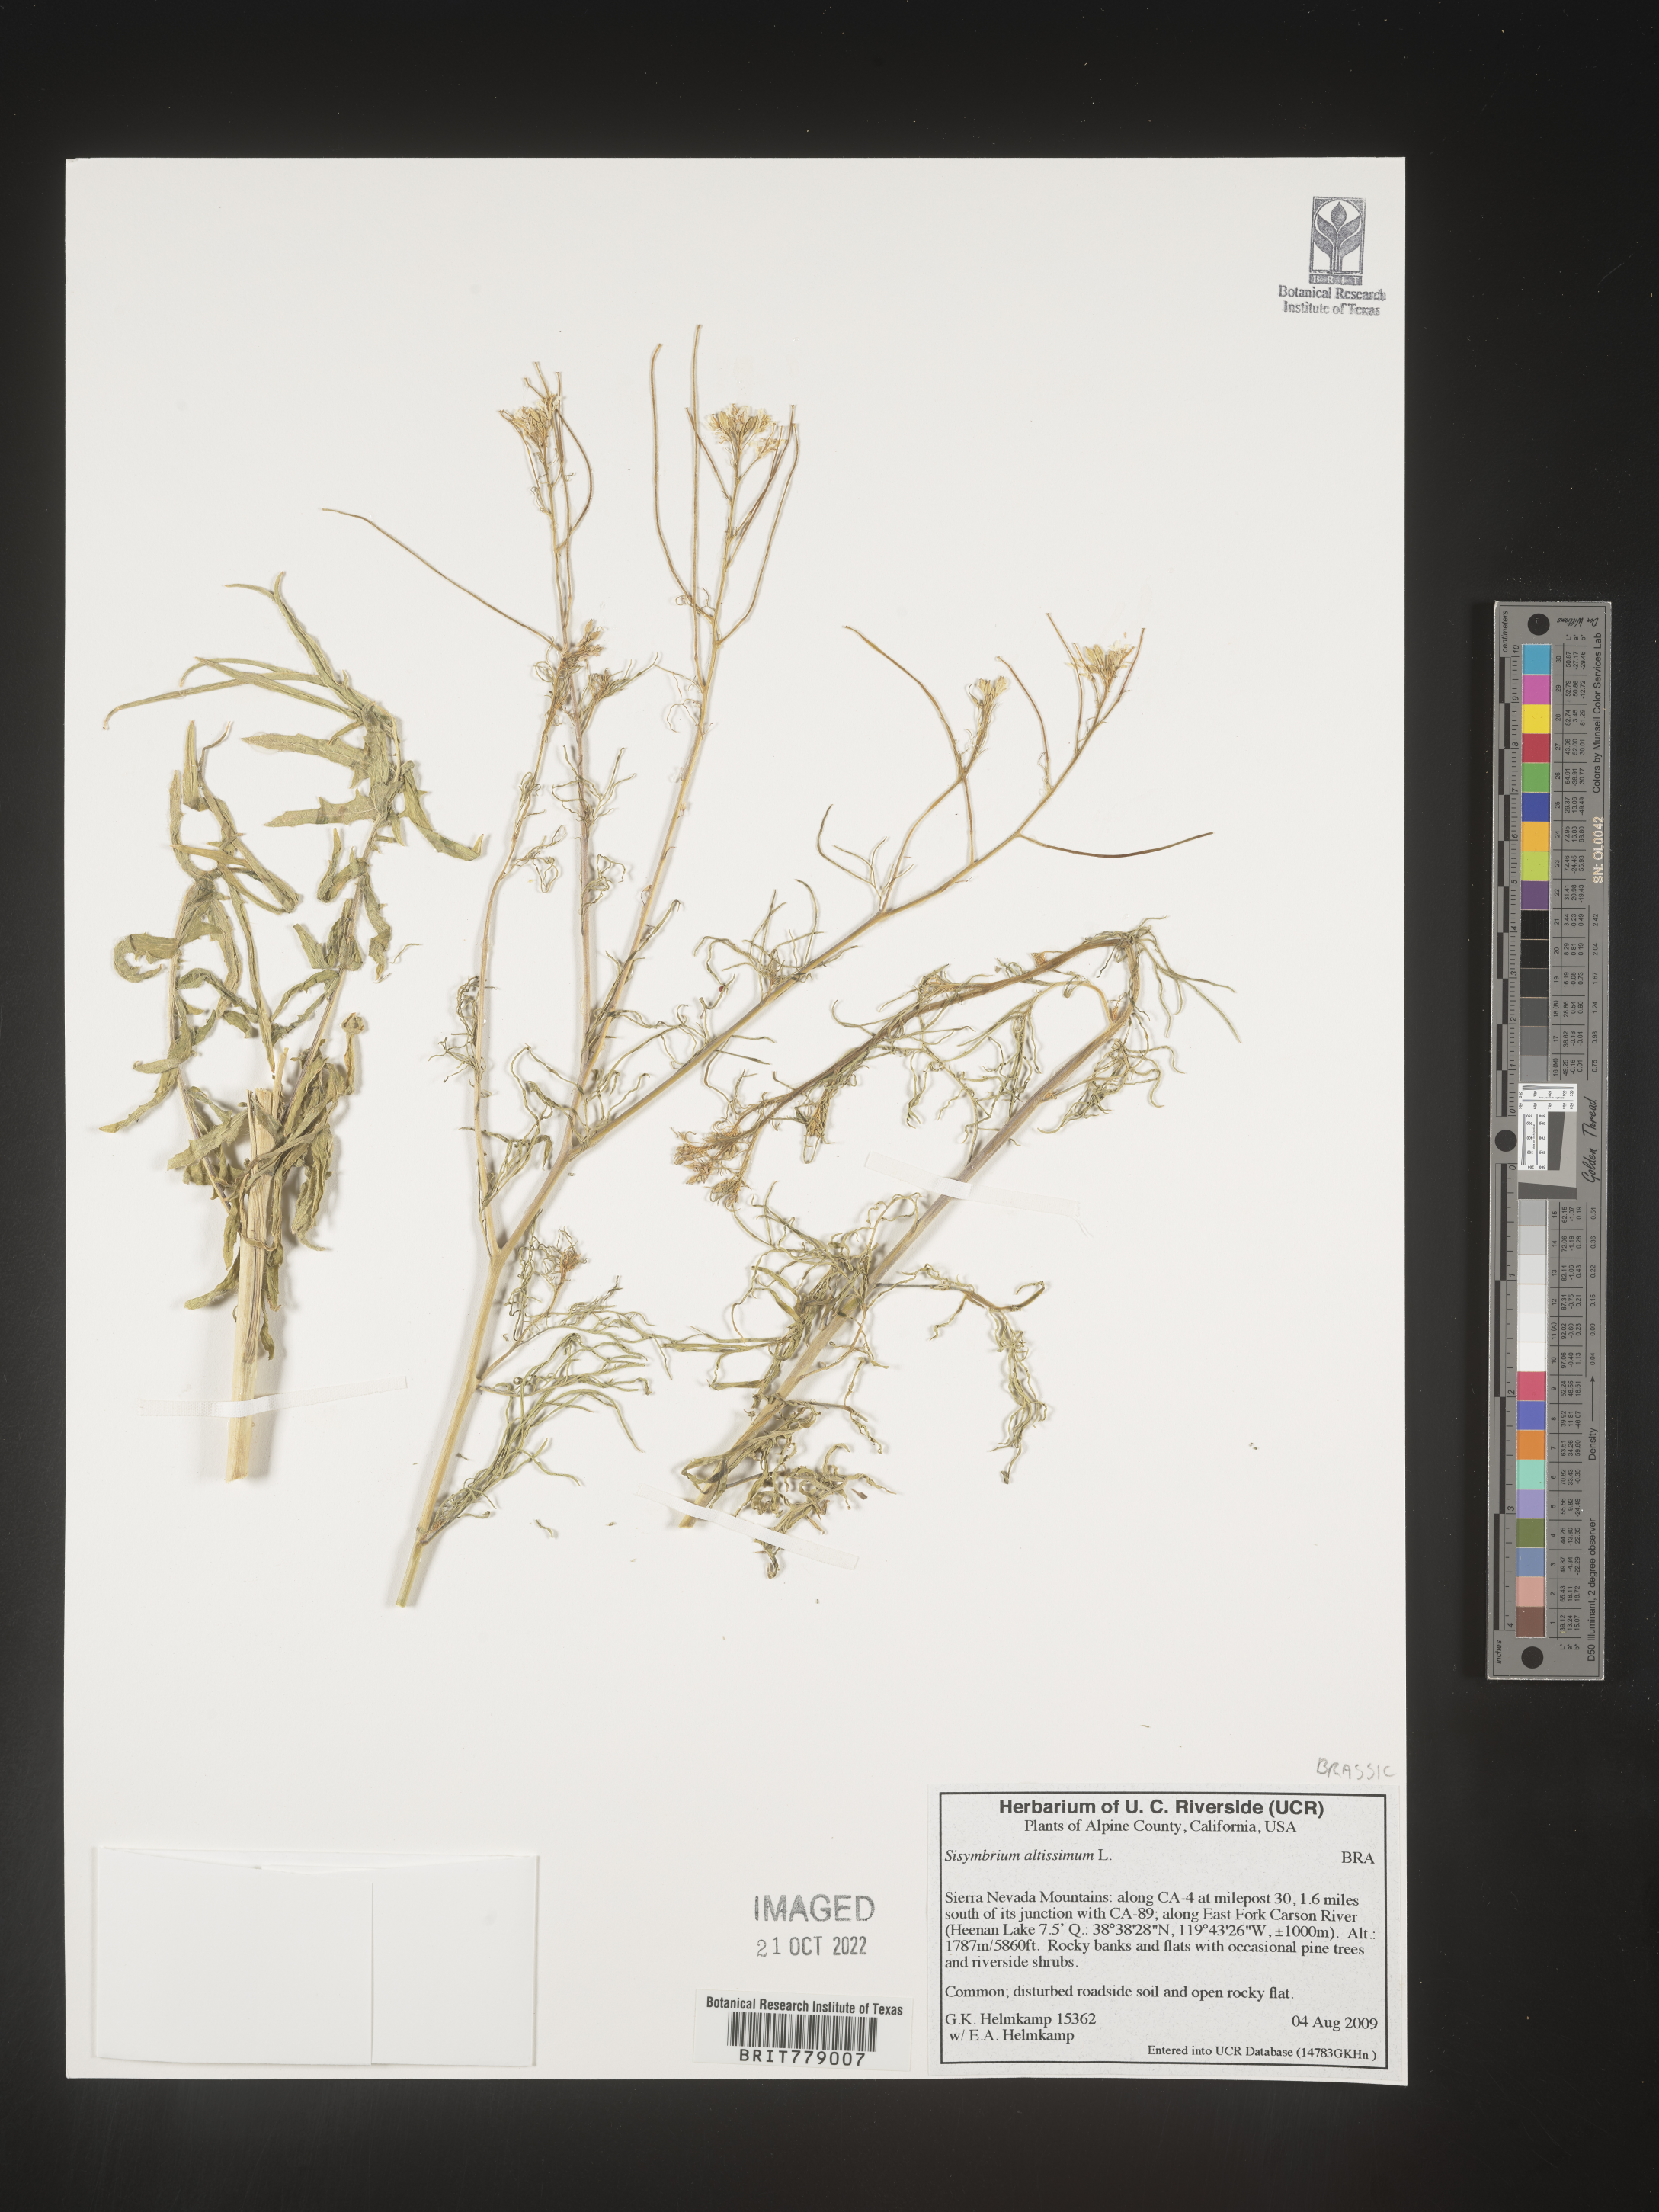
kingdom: Plantae
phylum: Tracheophyta
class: Magnoliopsida
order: Brassicales
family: Brassicaceae
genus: Sisymbrium
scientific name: Sisymbrium altissimum
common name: Tall rocket
